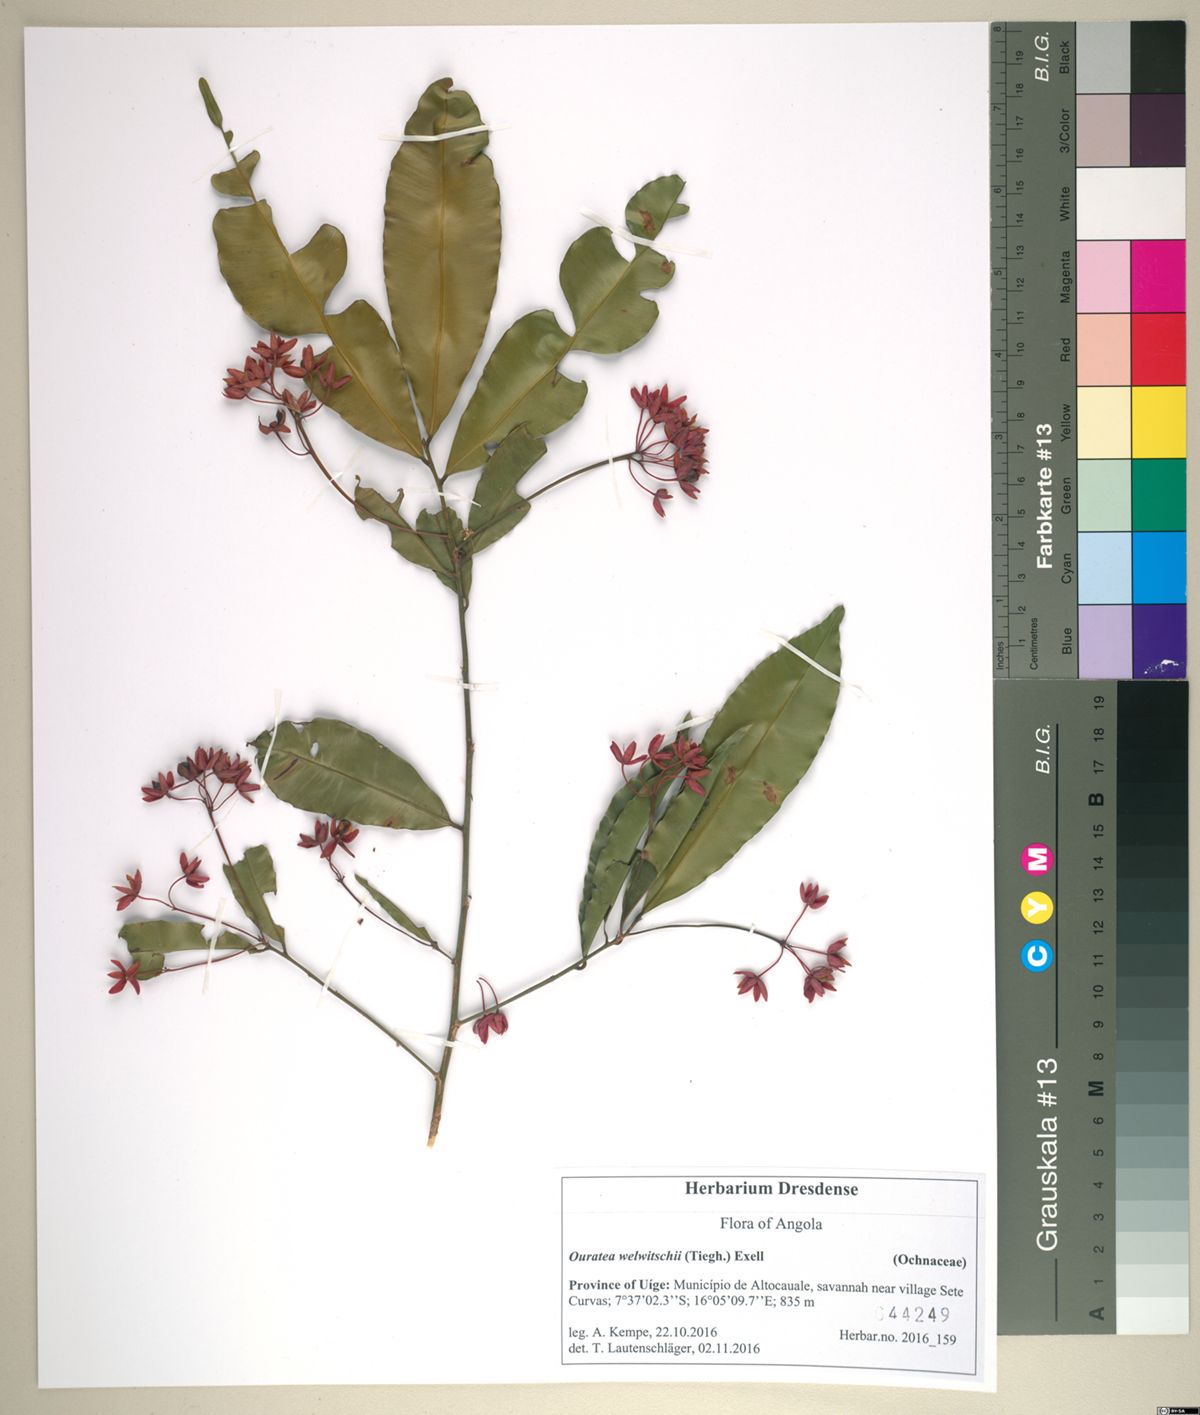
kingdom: Plantae
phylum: Tracheophyta
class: Magnoliopsida
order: Malpighiales
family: Ochnaceae
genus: Rhabdophyllum
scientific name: Rhabdophyllum welwitschii
